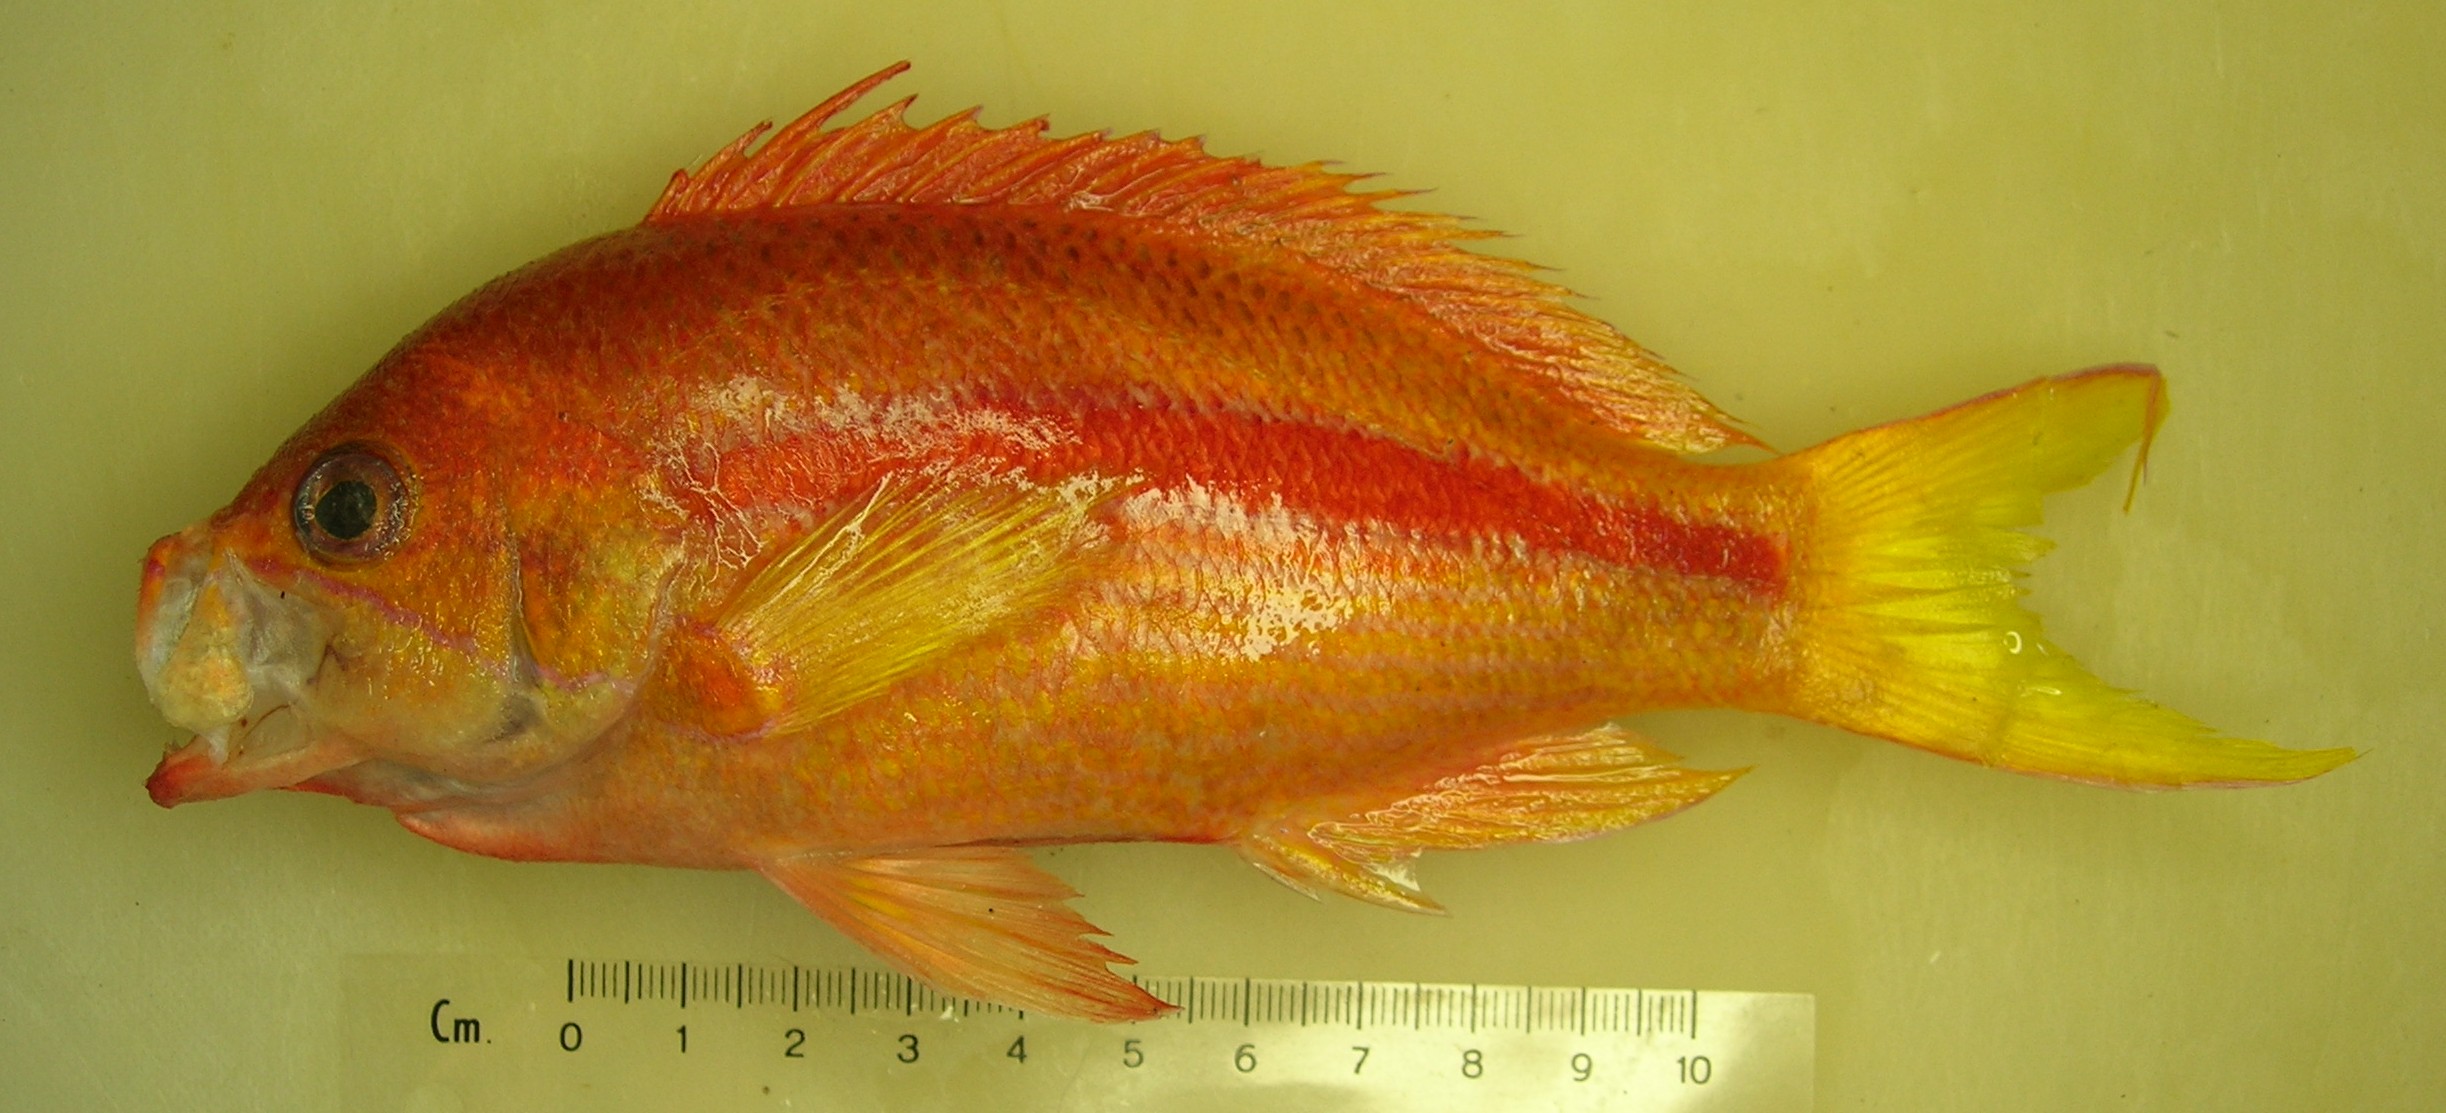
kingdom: Animalia
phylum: Chordata
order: Perciformes
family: Serranidae
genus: Pseudanthias
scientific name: Pseudanthias fasciatus
